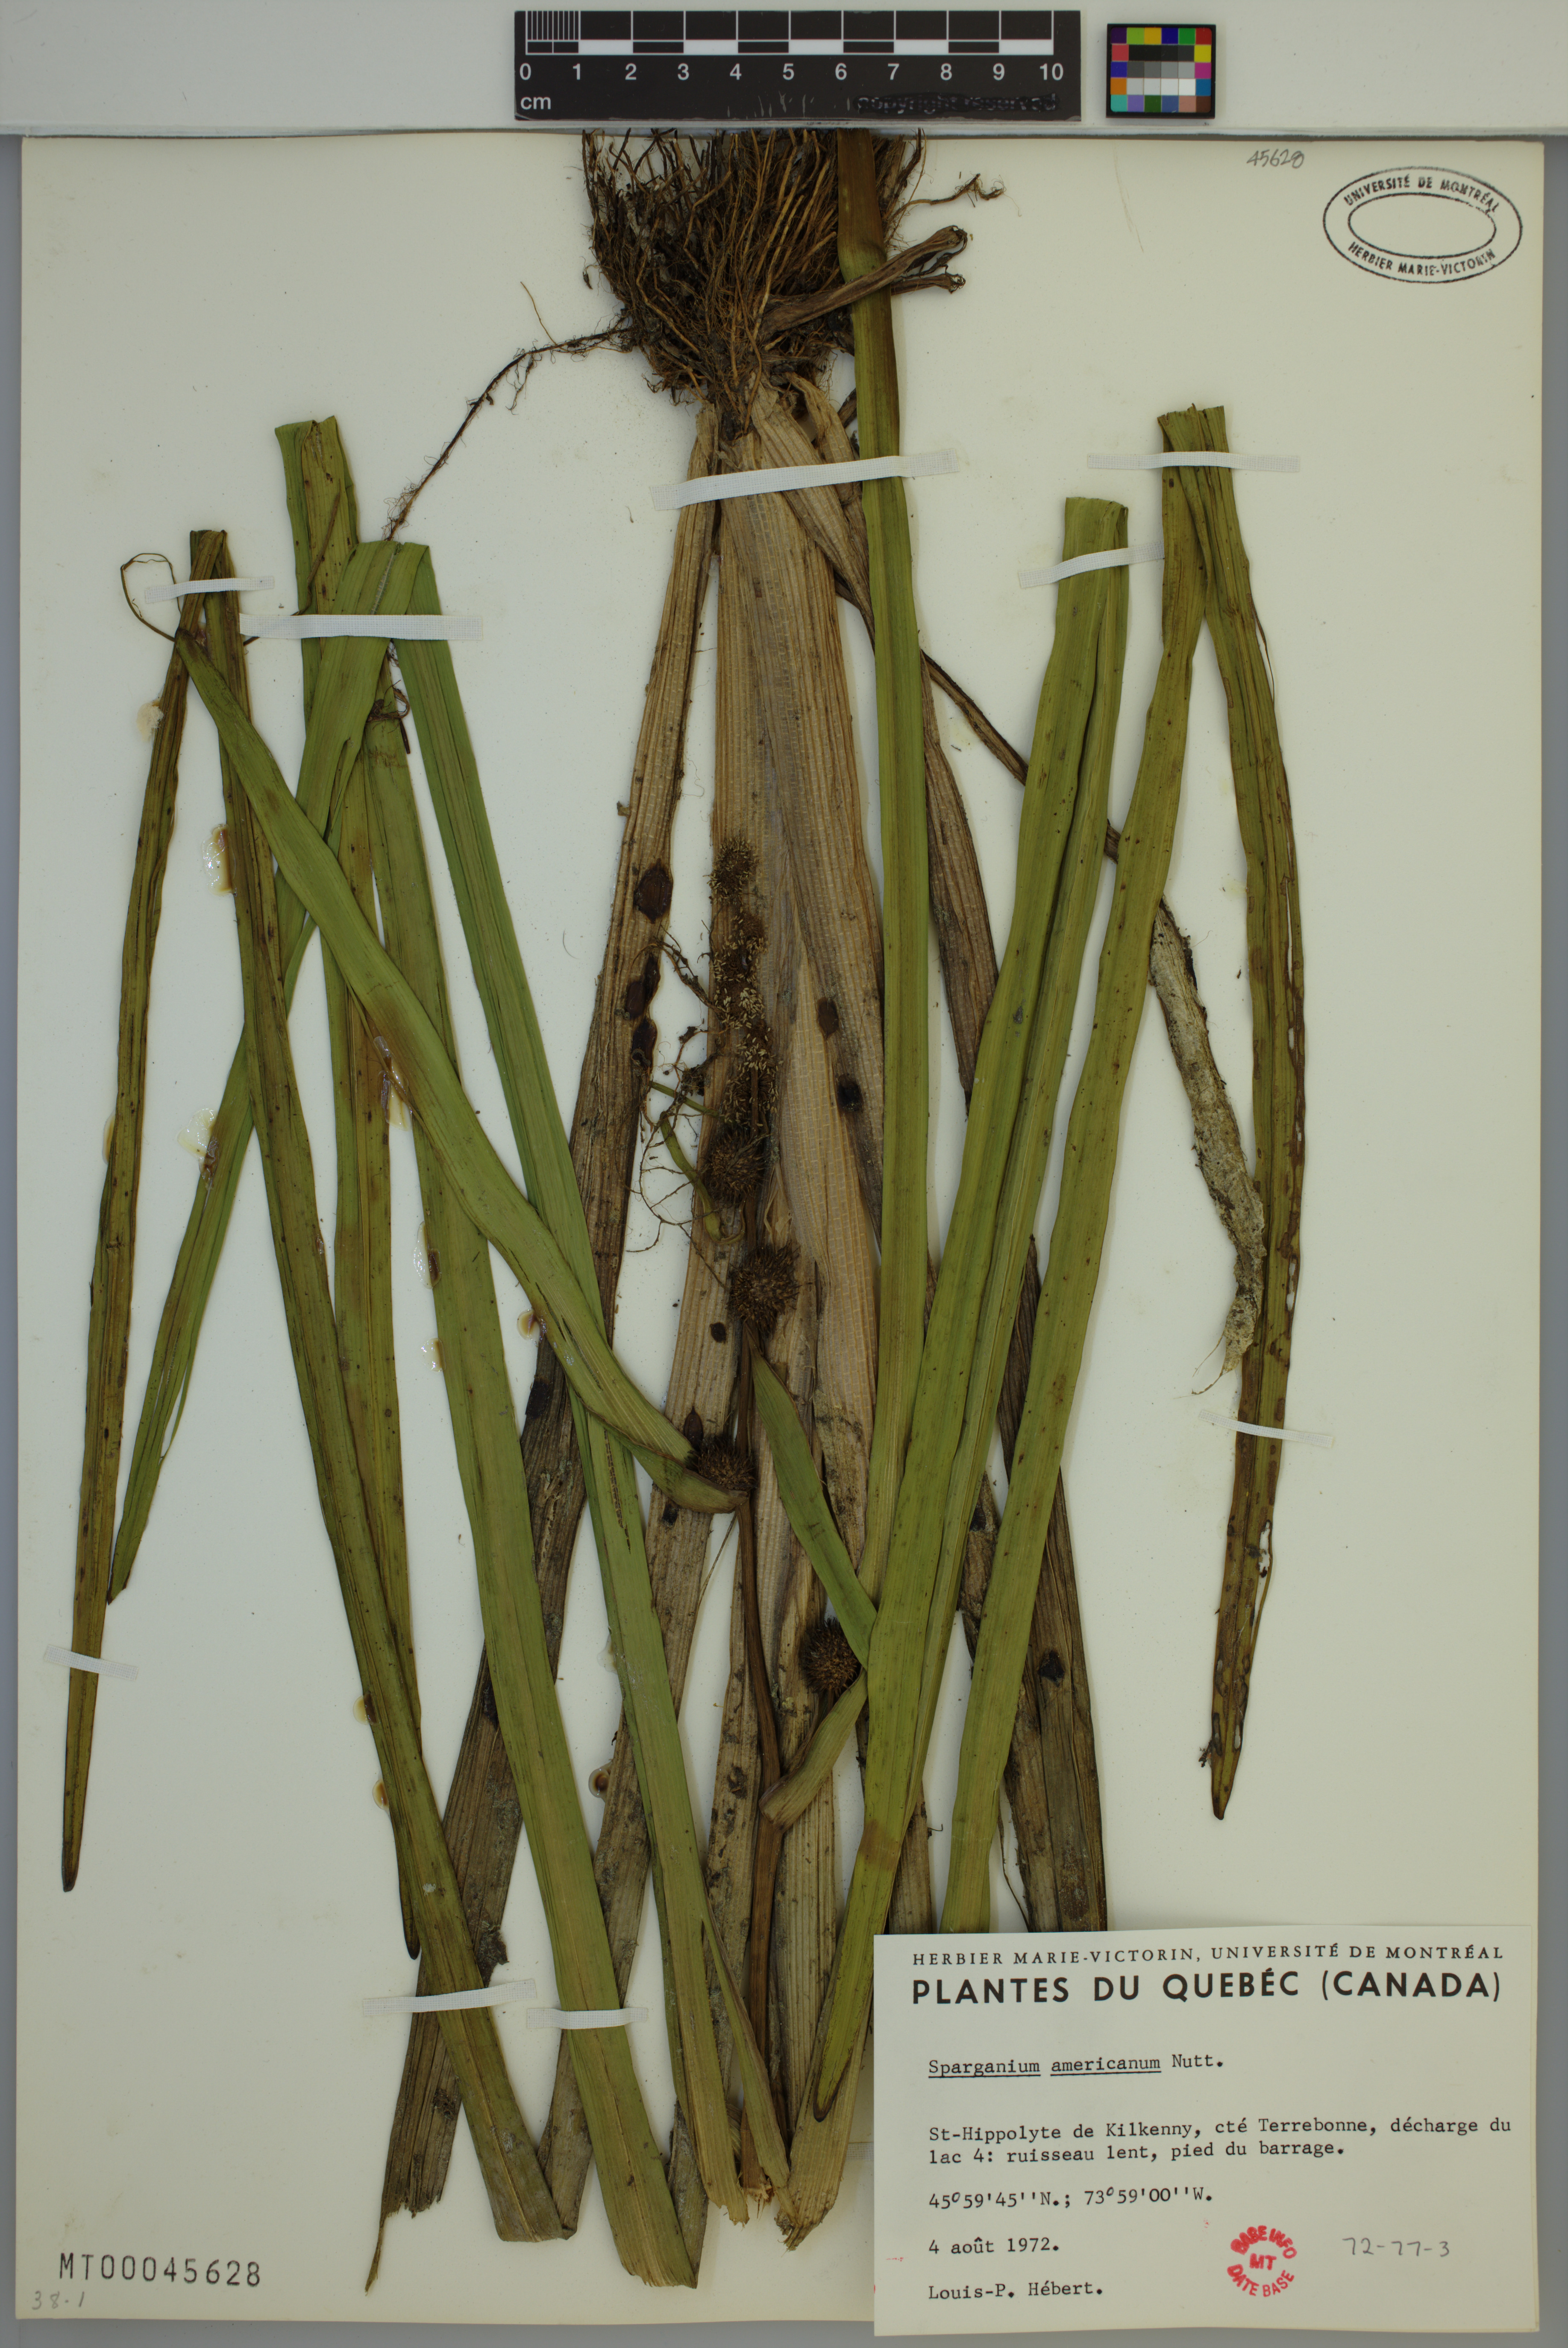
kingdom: Plantae
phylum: Tracheophyta
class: Liliopsida
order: Poales
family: Typhaceae
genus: Sparganium
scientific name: Sparganium americanum
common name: American burreed
